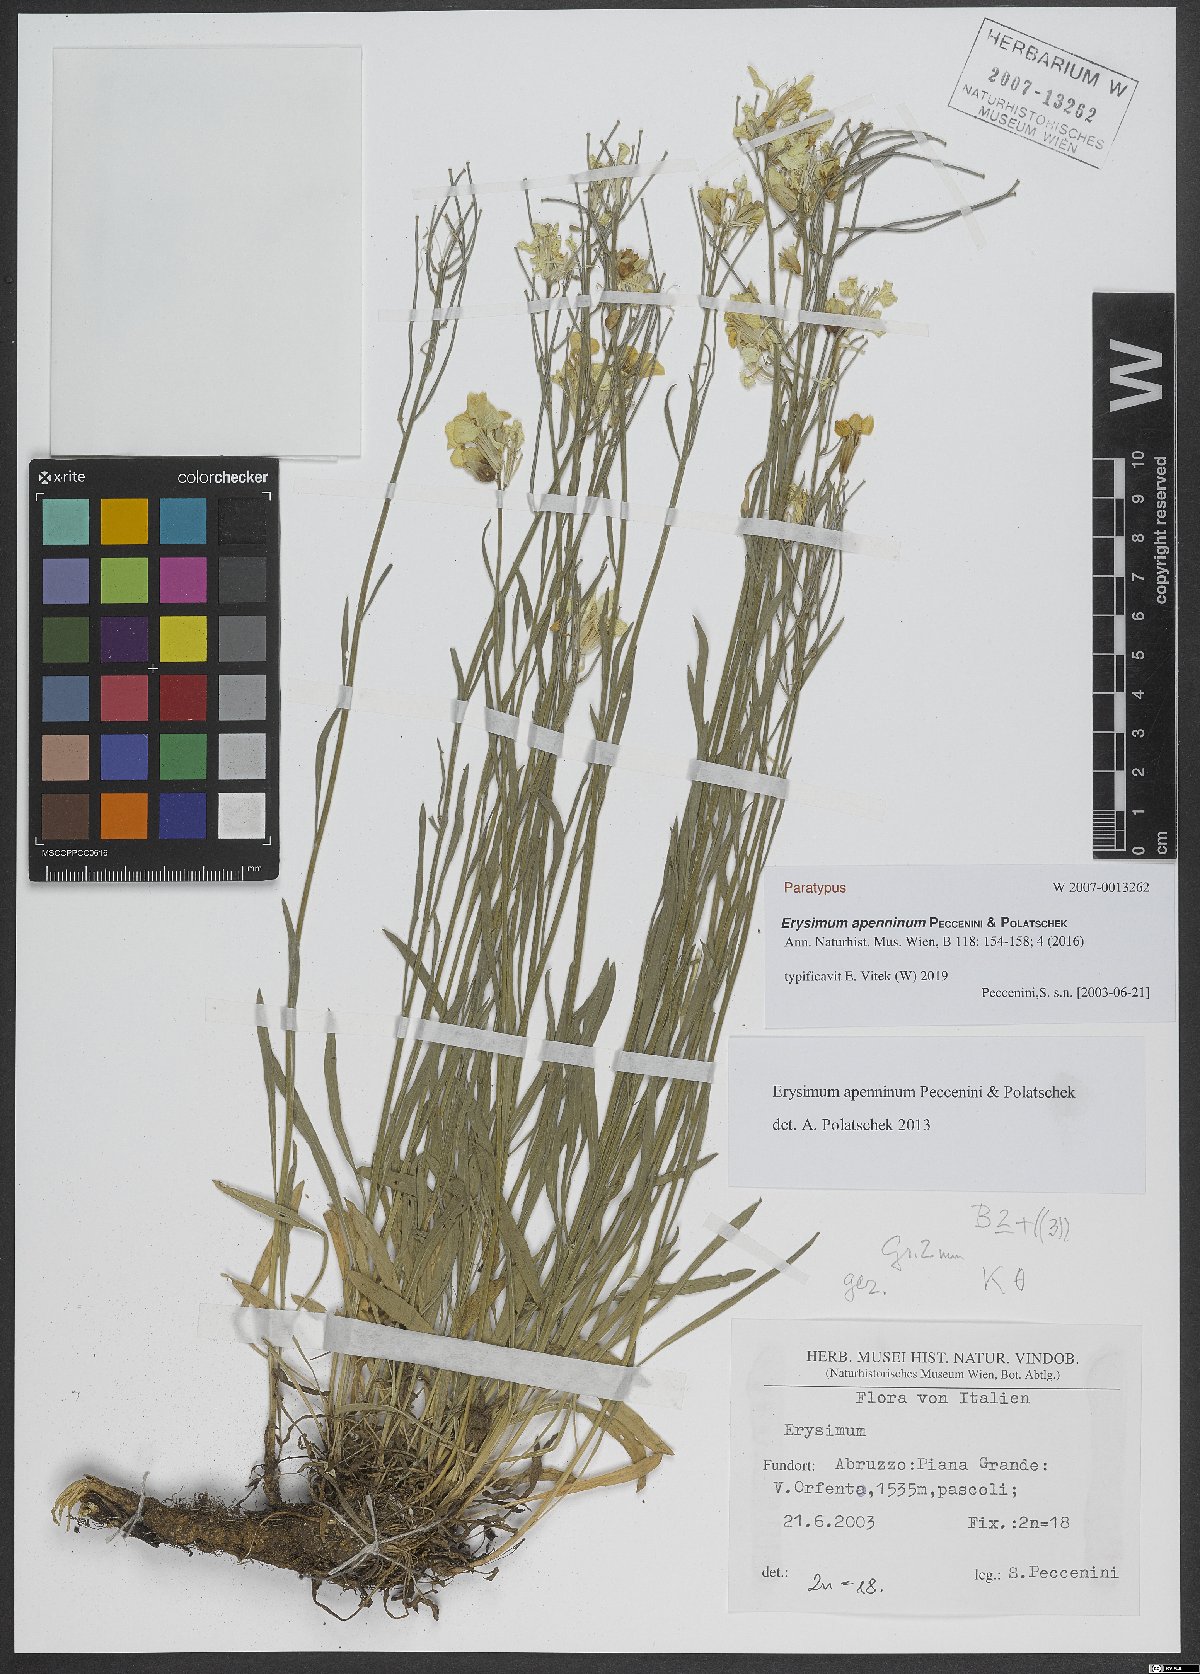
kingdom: Plantae
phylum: Tracheophyta
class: Magnoliopsida
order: Brassicales
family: Brassicaceae
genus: Erysimum
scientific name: Erysimum apenninum
